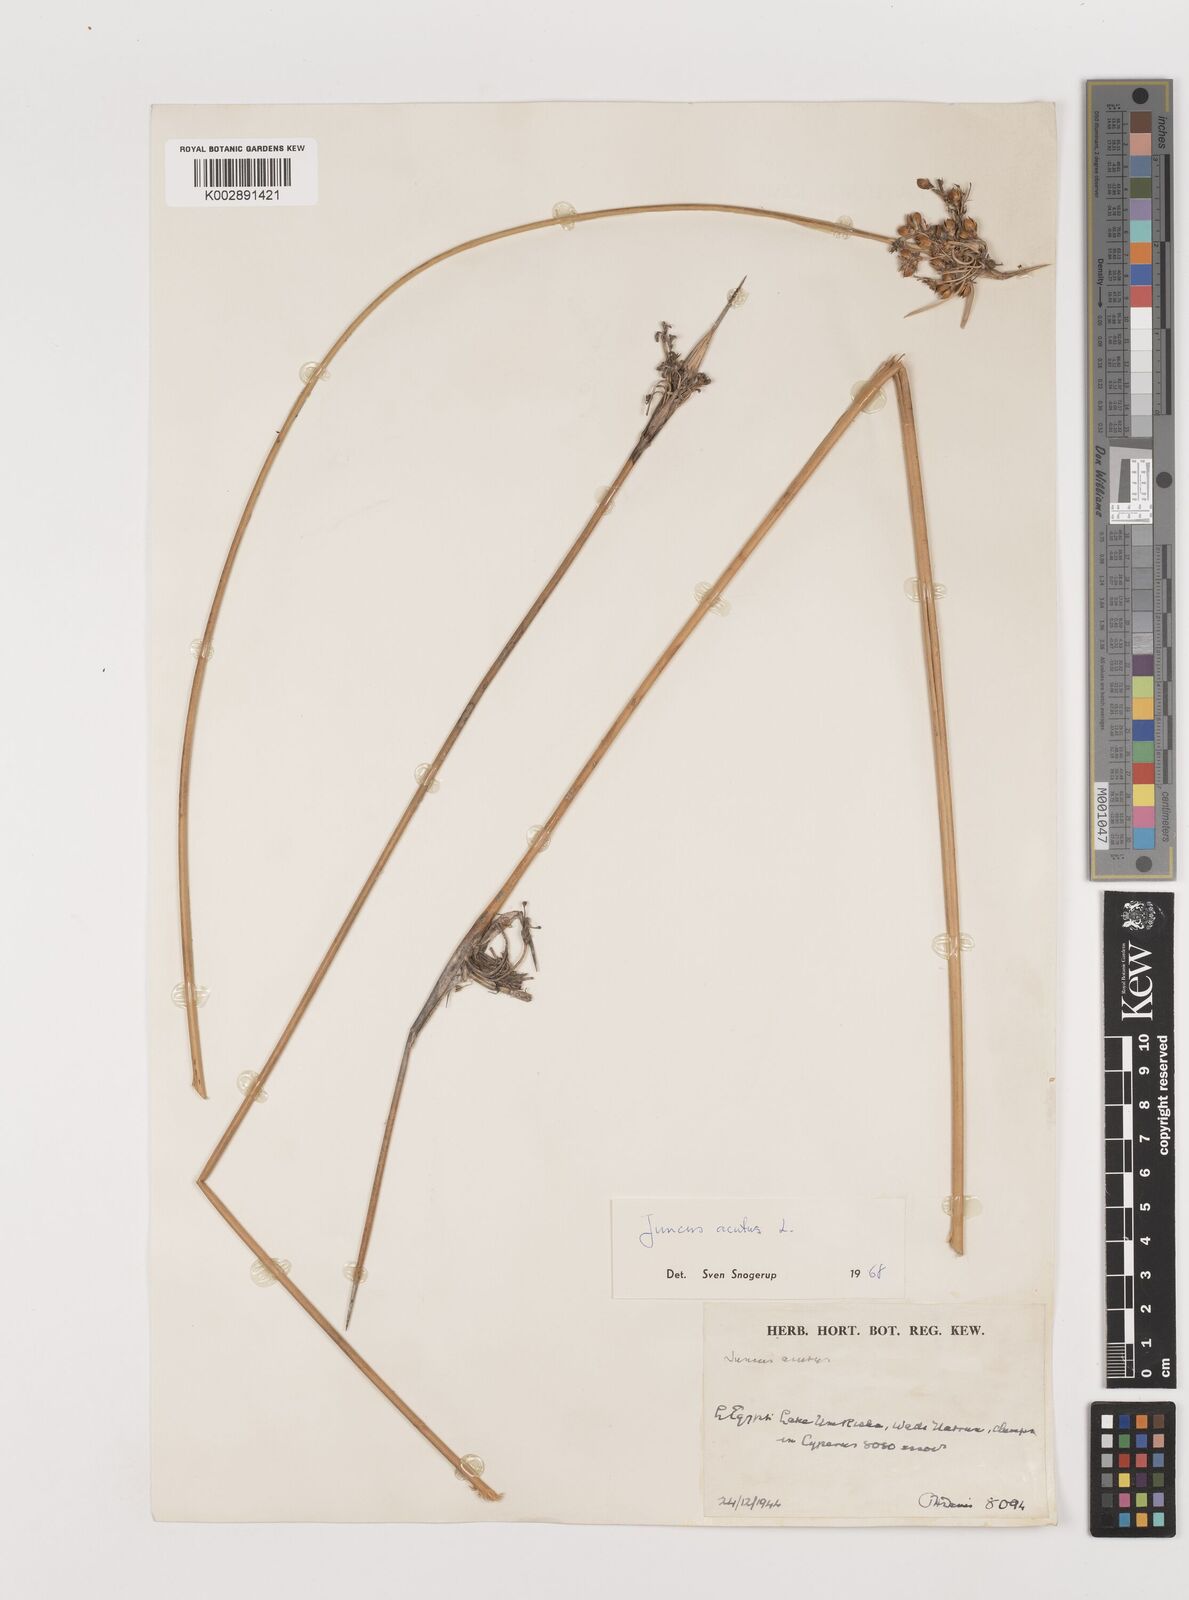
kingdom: Plantae
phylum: Tracheophyta
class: Liliopsida
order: Poales
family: Juncaceae
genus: Juncus
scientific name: Juncus acutus
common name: Sharp rush
